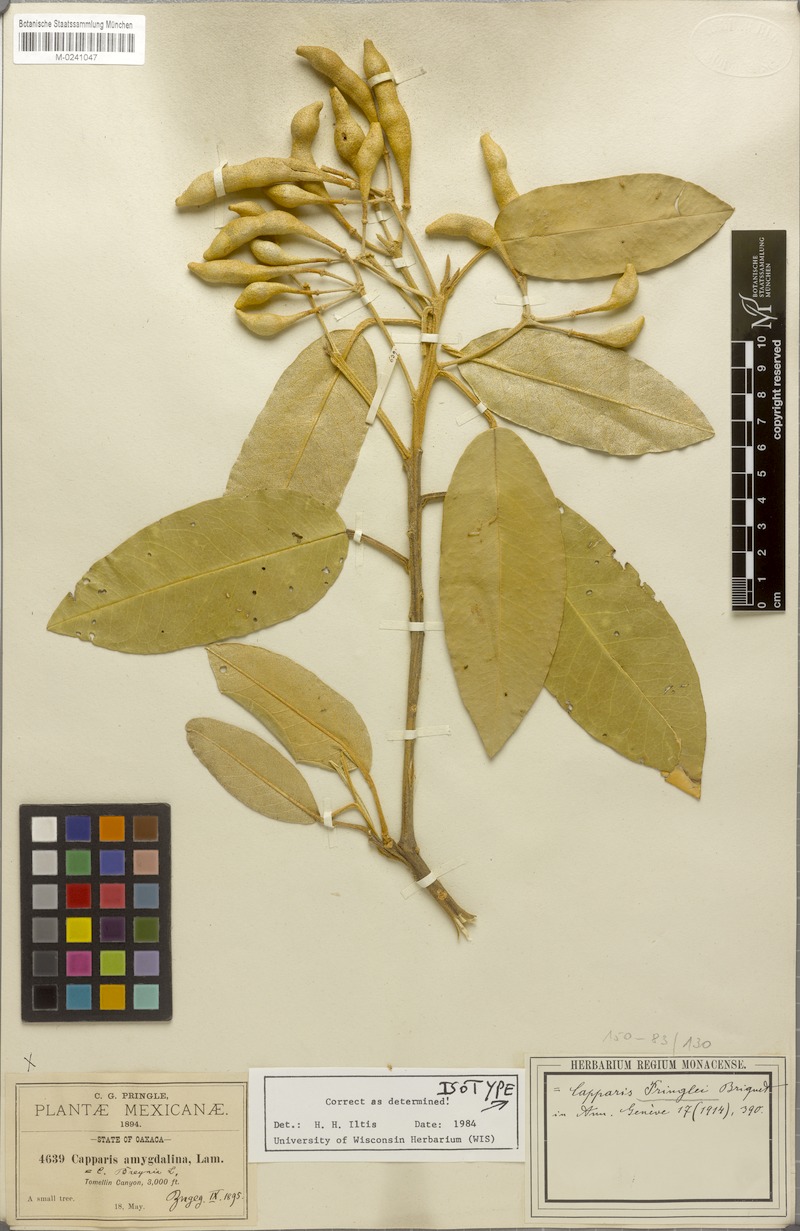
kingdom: Plantae
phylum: Tracheophyta
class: Magnoliopsida
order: Brassicales
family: Capparaceae
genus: Quadrella
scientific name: Quadrella pringlei
